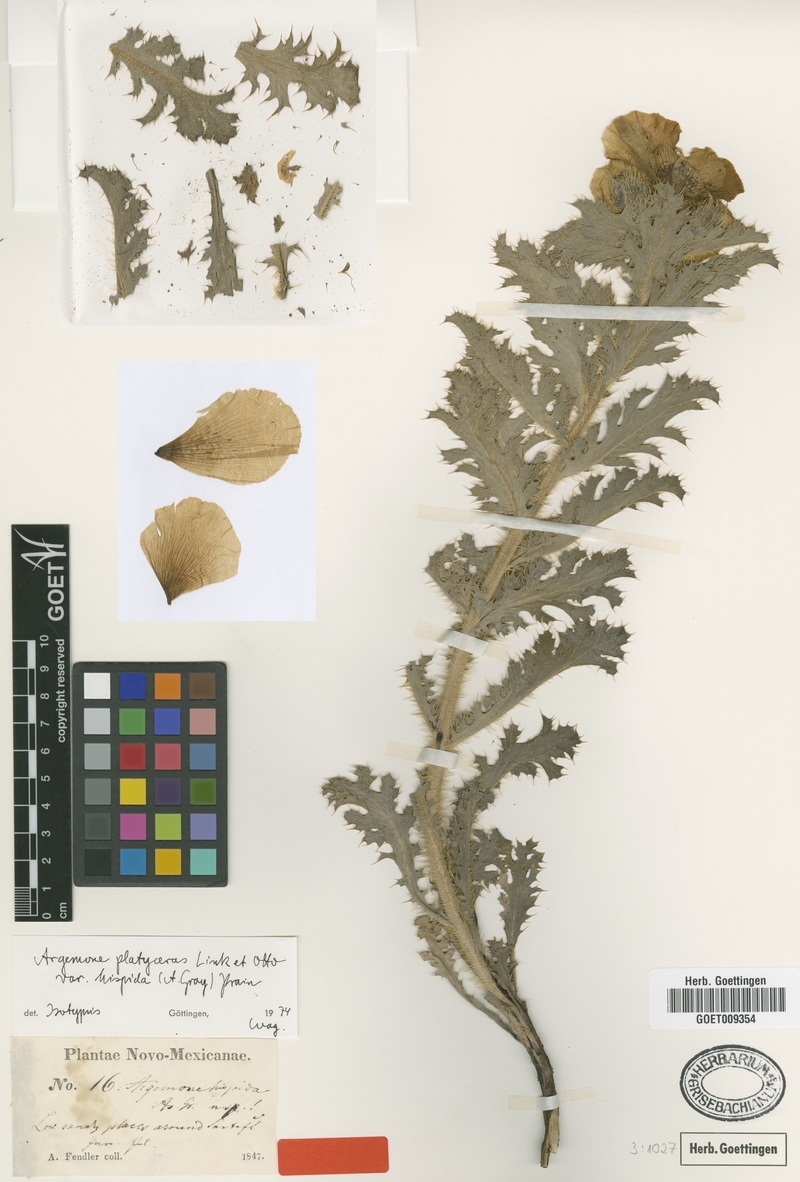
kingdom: Plantae
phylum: Tracheophyta
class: Magnoliopsida
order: Ranunculales
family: Papaveraceae
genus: Argemone
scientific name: Argemone hispida
